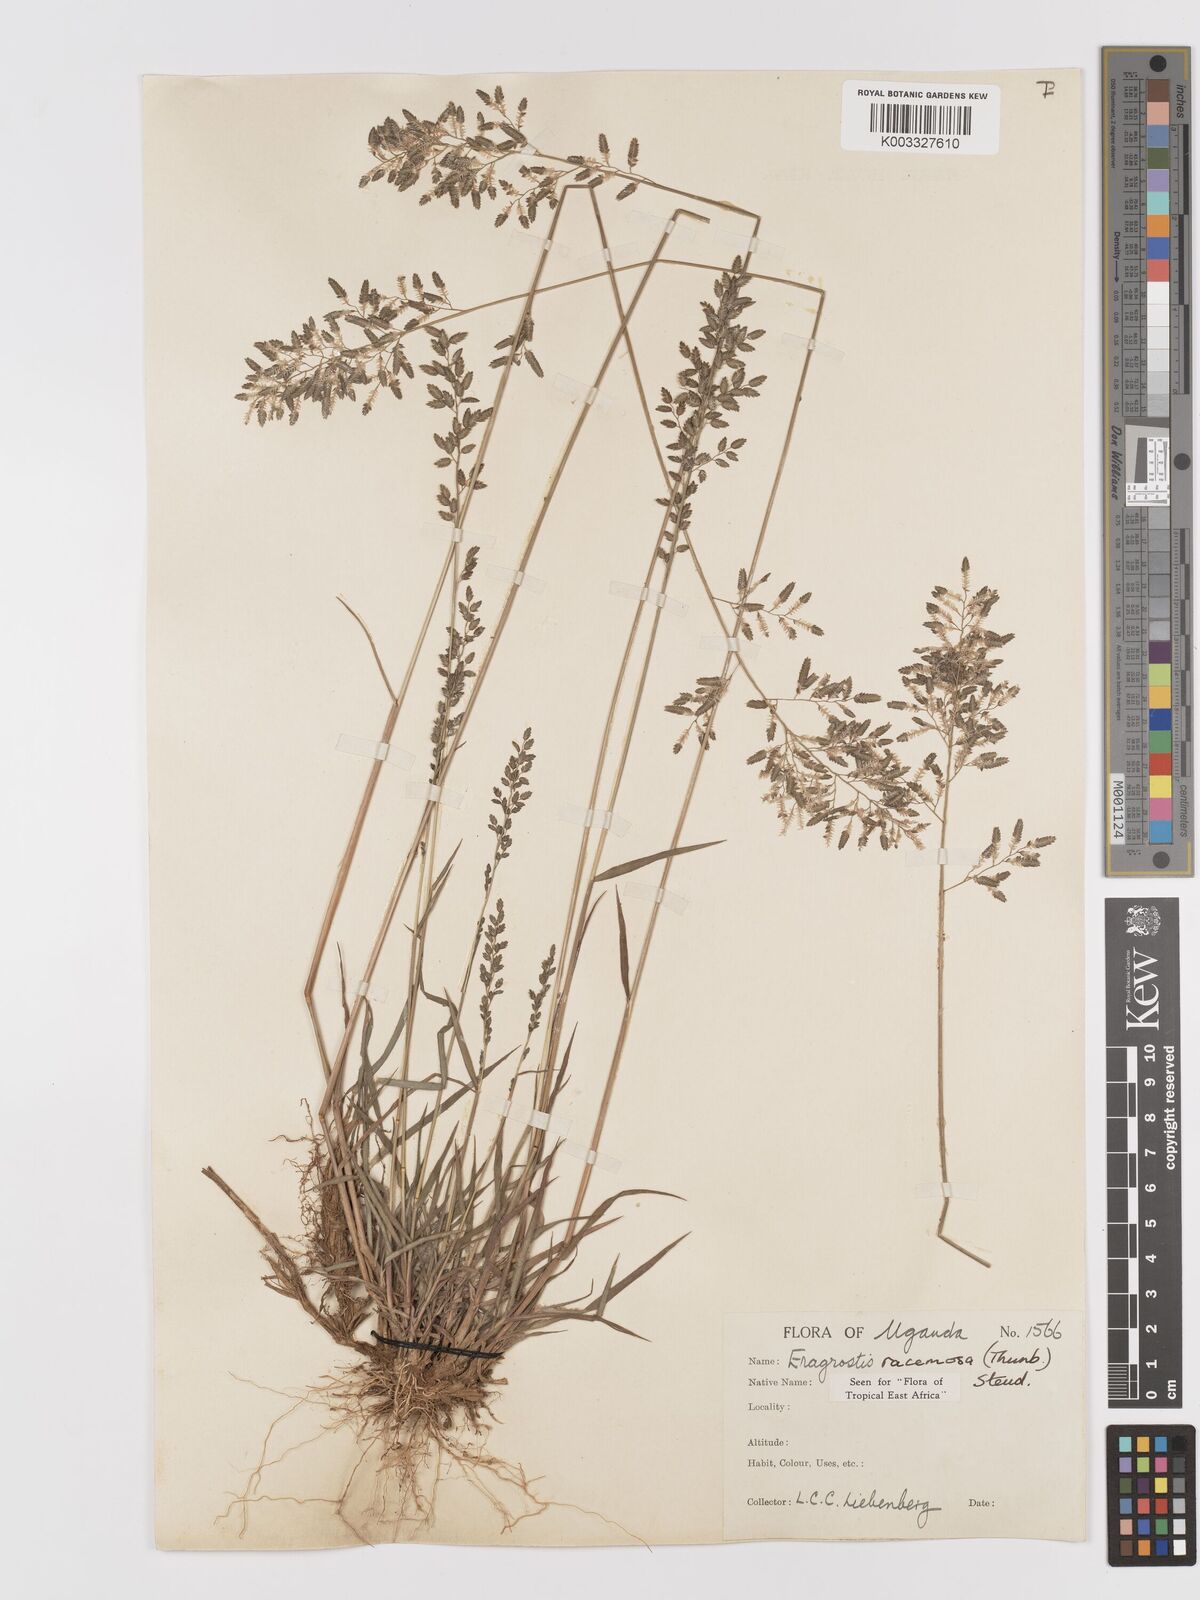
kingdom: Plantae
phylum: Tracheophyta
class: Liliopsida
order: Poales
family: Poaceae
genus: Eragrostis
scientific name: Eragrostis racemosa
